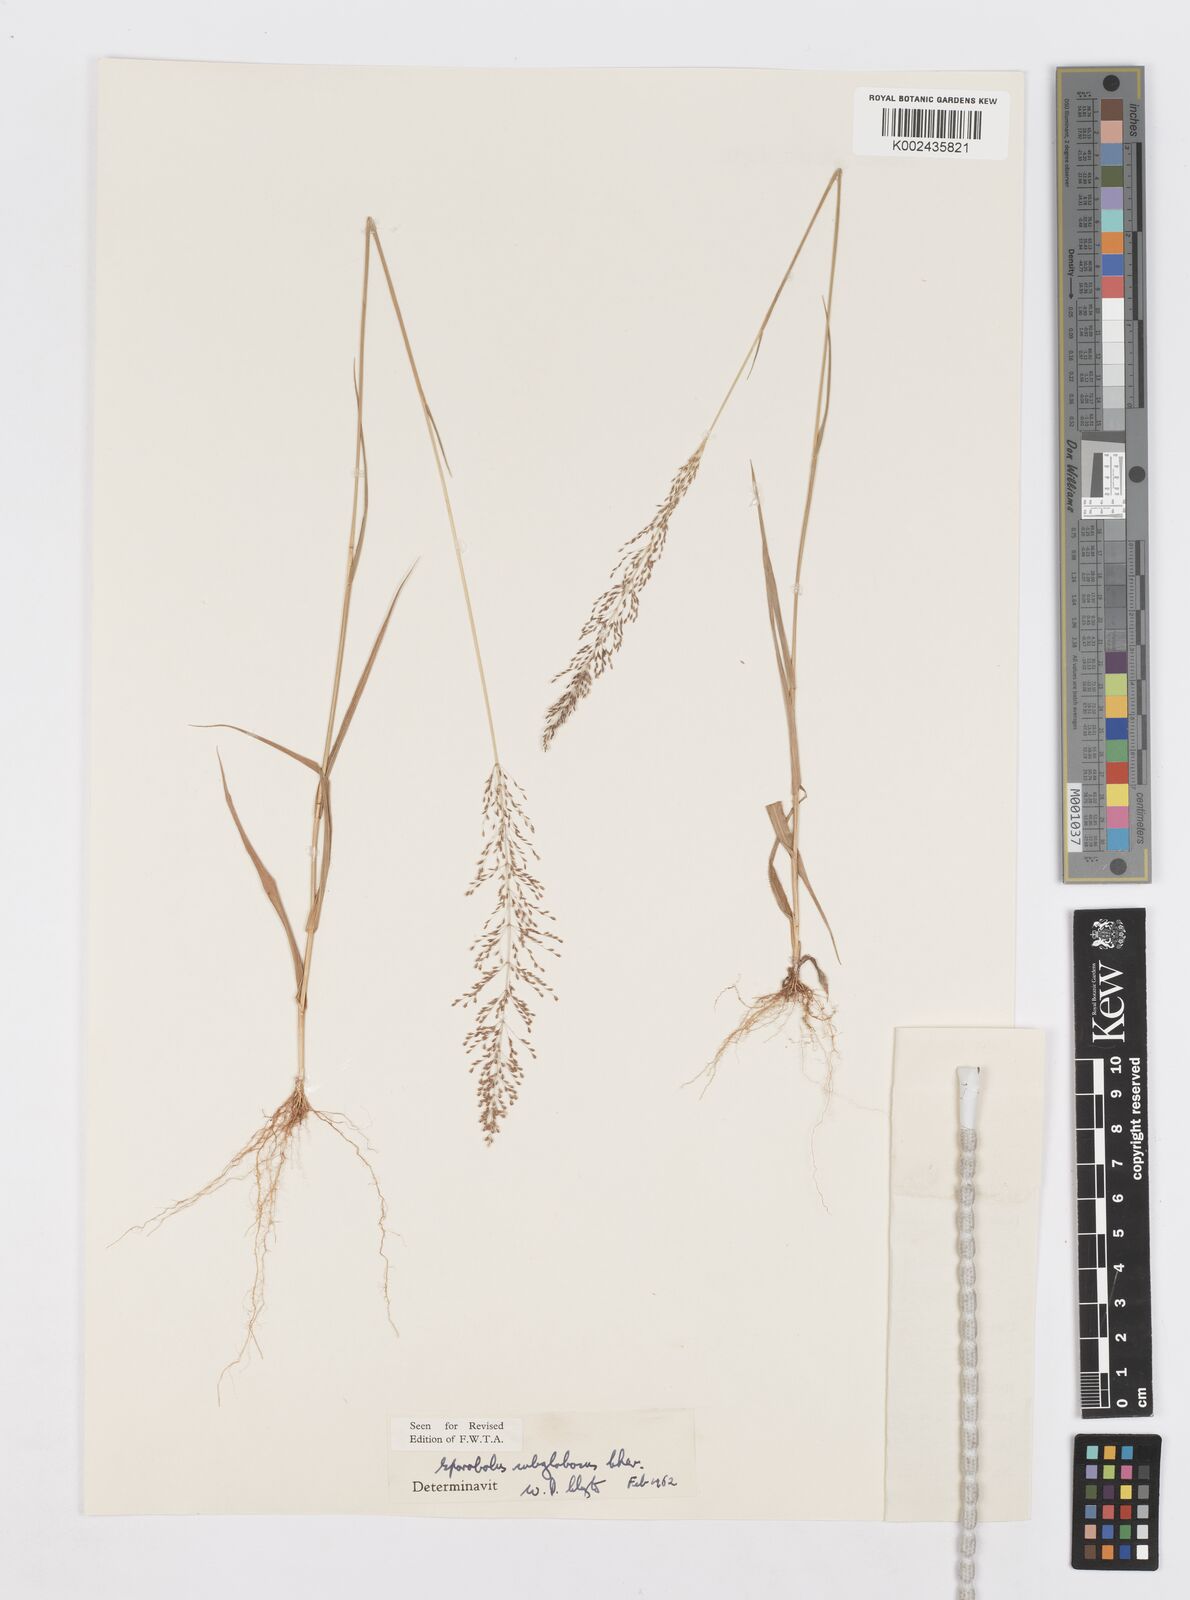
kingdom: Plantae
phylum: Tracheophyta
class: Liliopsida
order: Poales
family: Poaceae
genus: Sporobolus
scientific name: Sporobolus subglobosus
